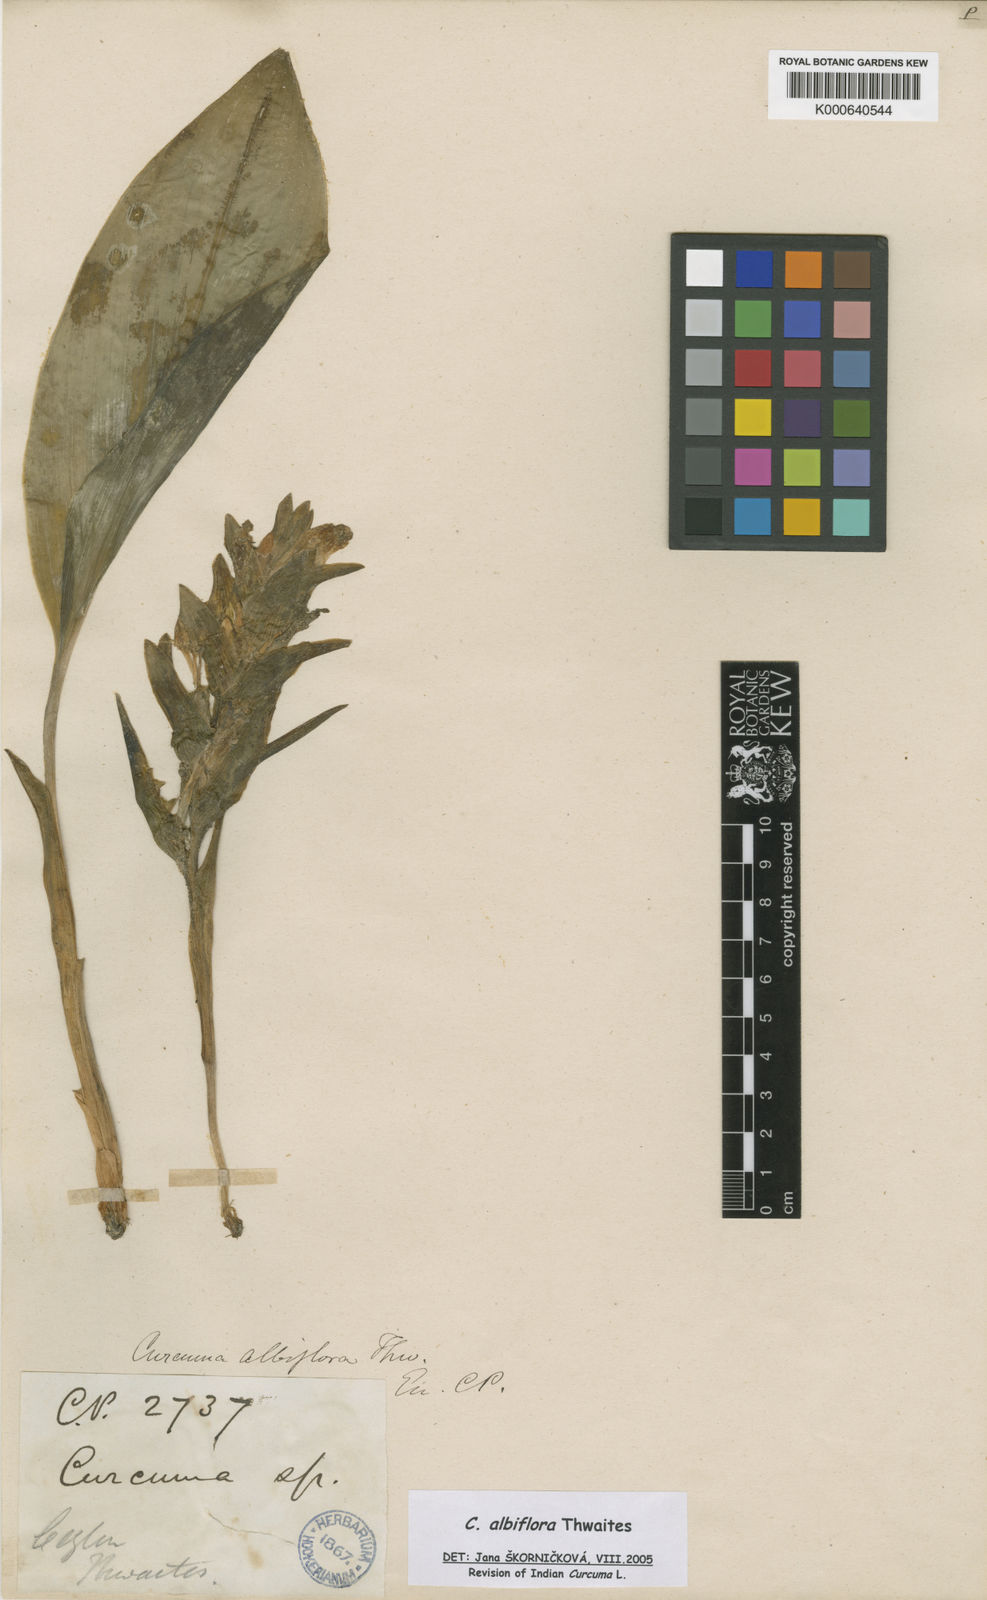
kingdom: Plantae
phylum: Tracheophyta
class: Liliopsida
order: Zingiberales
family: Zingiberaceae
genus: Curcuma
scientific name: Curcuma albiflora
